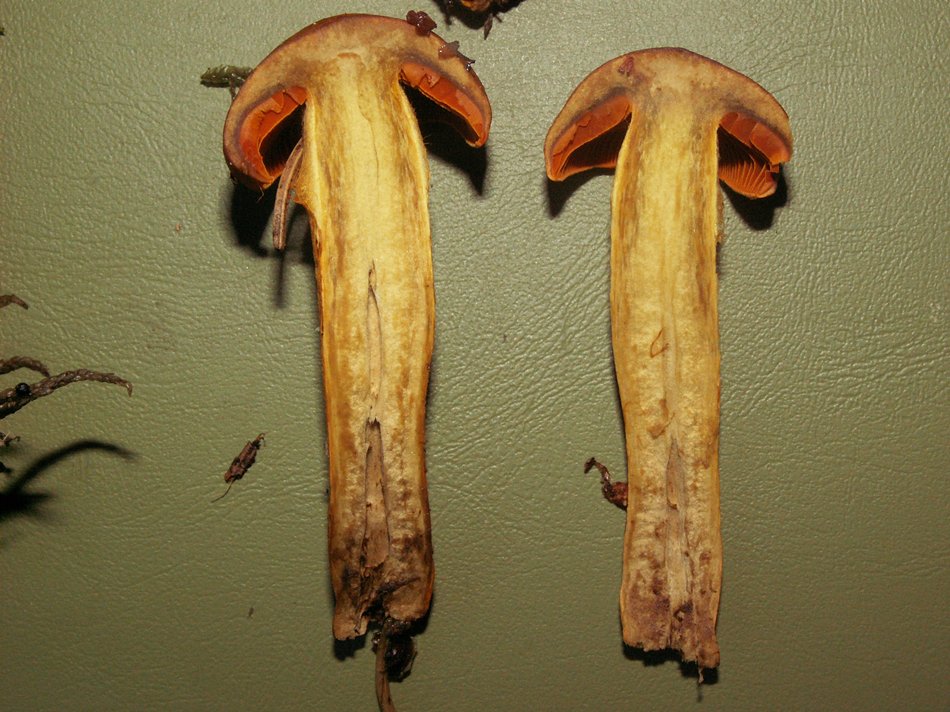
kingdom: Fungi
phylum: Basidiomycota
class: Agaricomycetes
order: Agaricales
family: Cortinariaceae
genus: Cortinarius
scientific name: Cortinarius malicorius
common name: grønkødet slørhat
